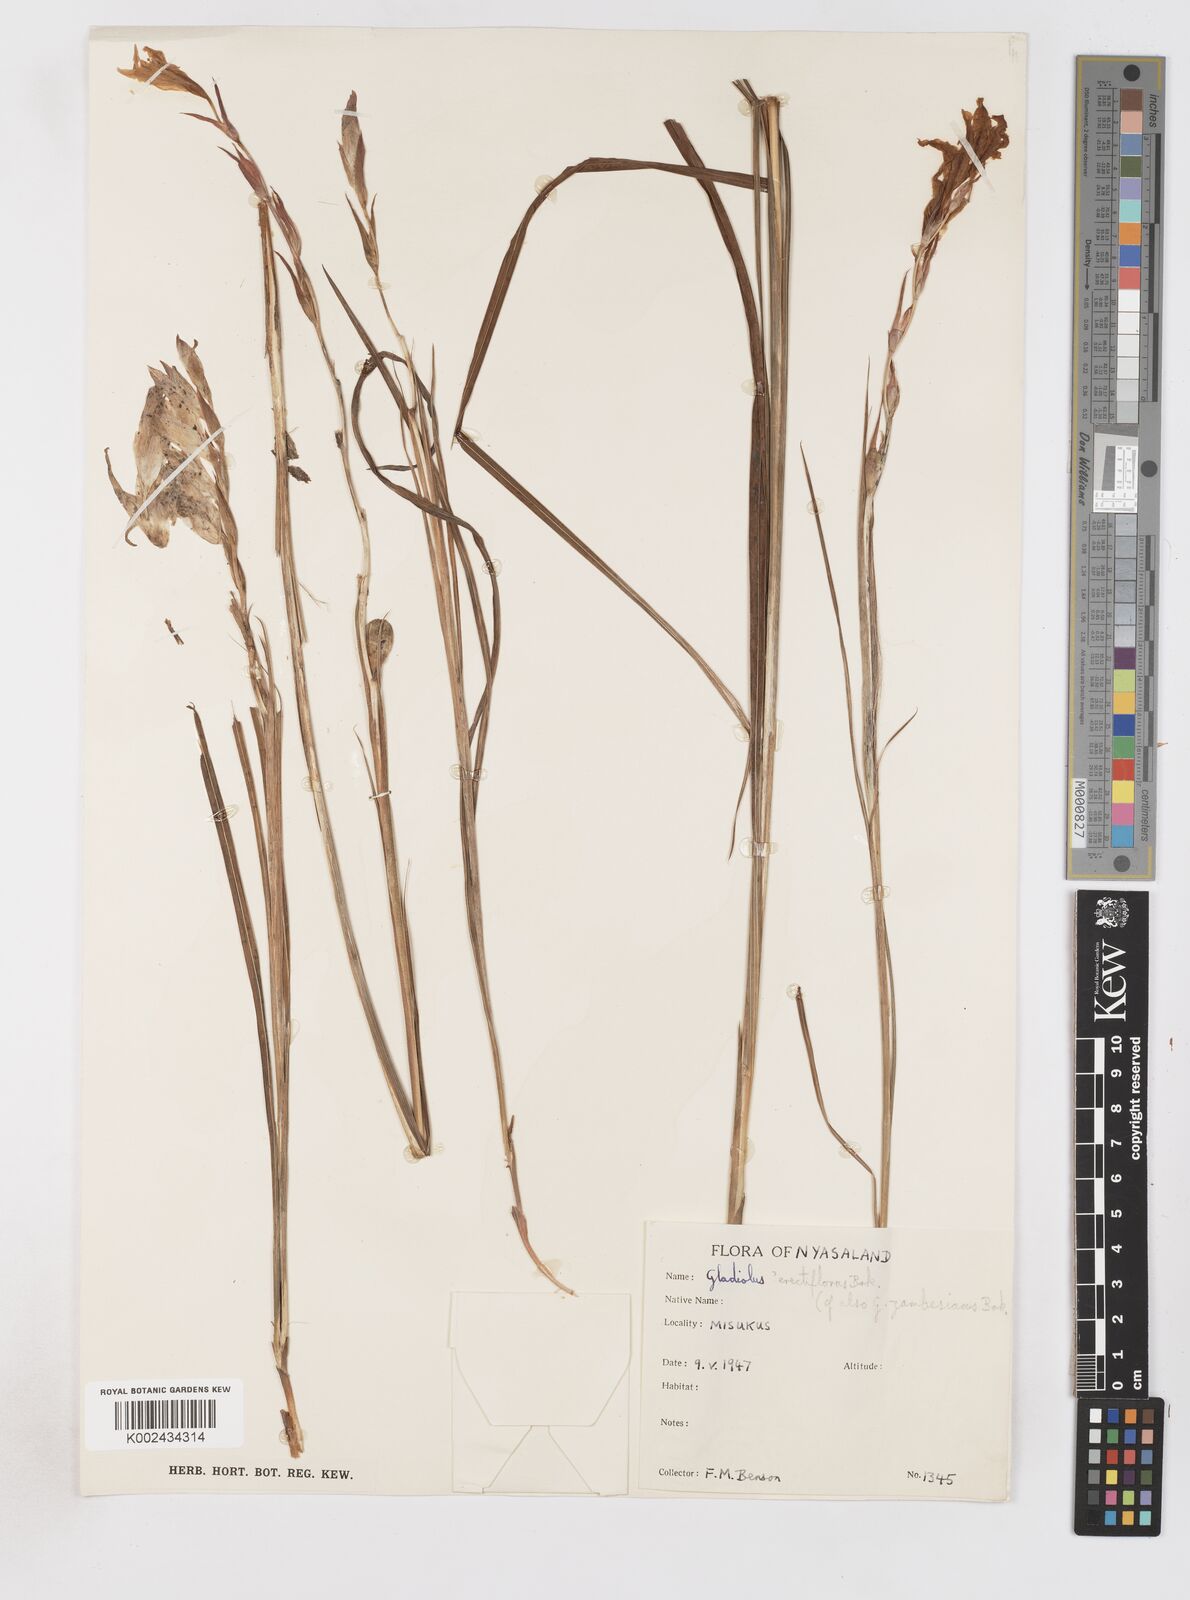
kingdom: Plantae
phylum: Tracheophyta
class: Liliopsida
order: Asparagales
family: Iridaceae
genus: Gladiolus
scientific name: Gladiolus erectiflorus
